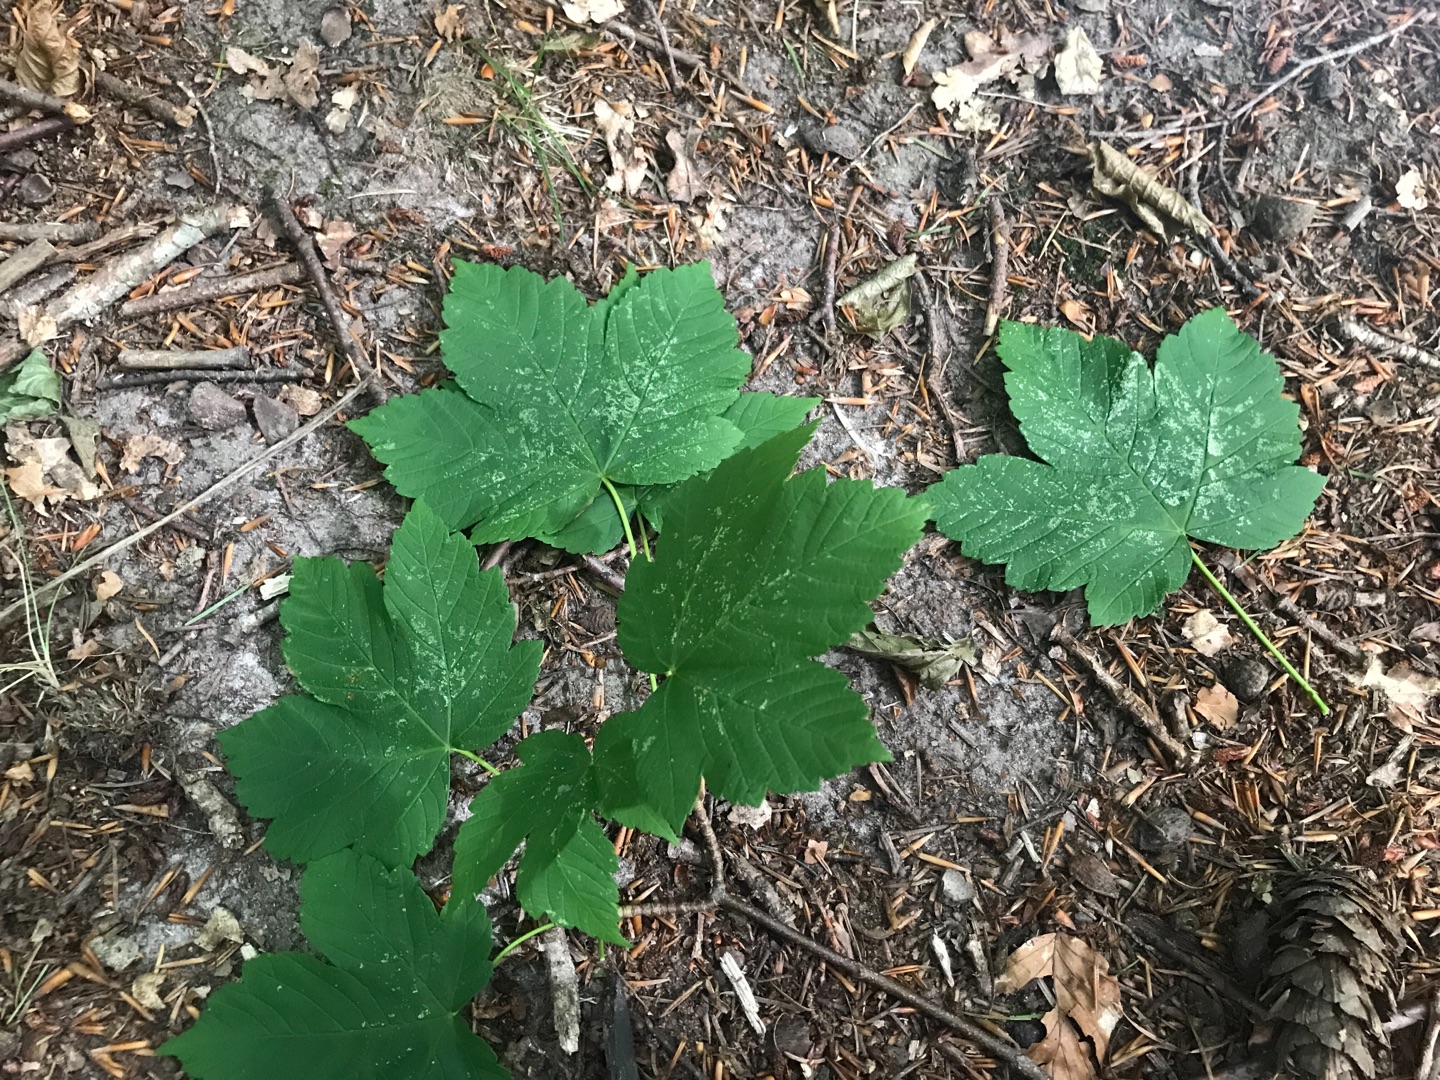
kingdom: Plantae
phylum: Tracheophyta
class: Magnoliopsida
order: Sapindales
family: Sapindaceae
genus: Acer
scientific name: Acer pseudoplatanus
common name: Ahorn
